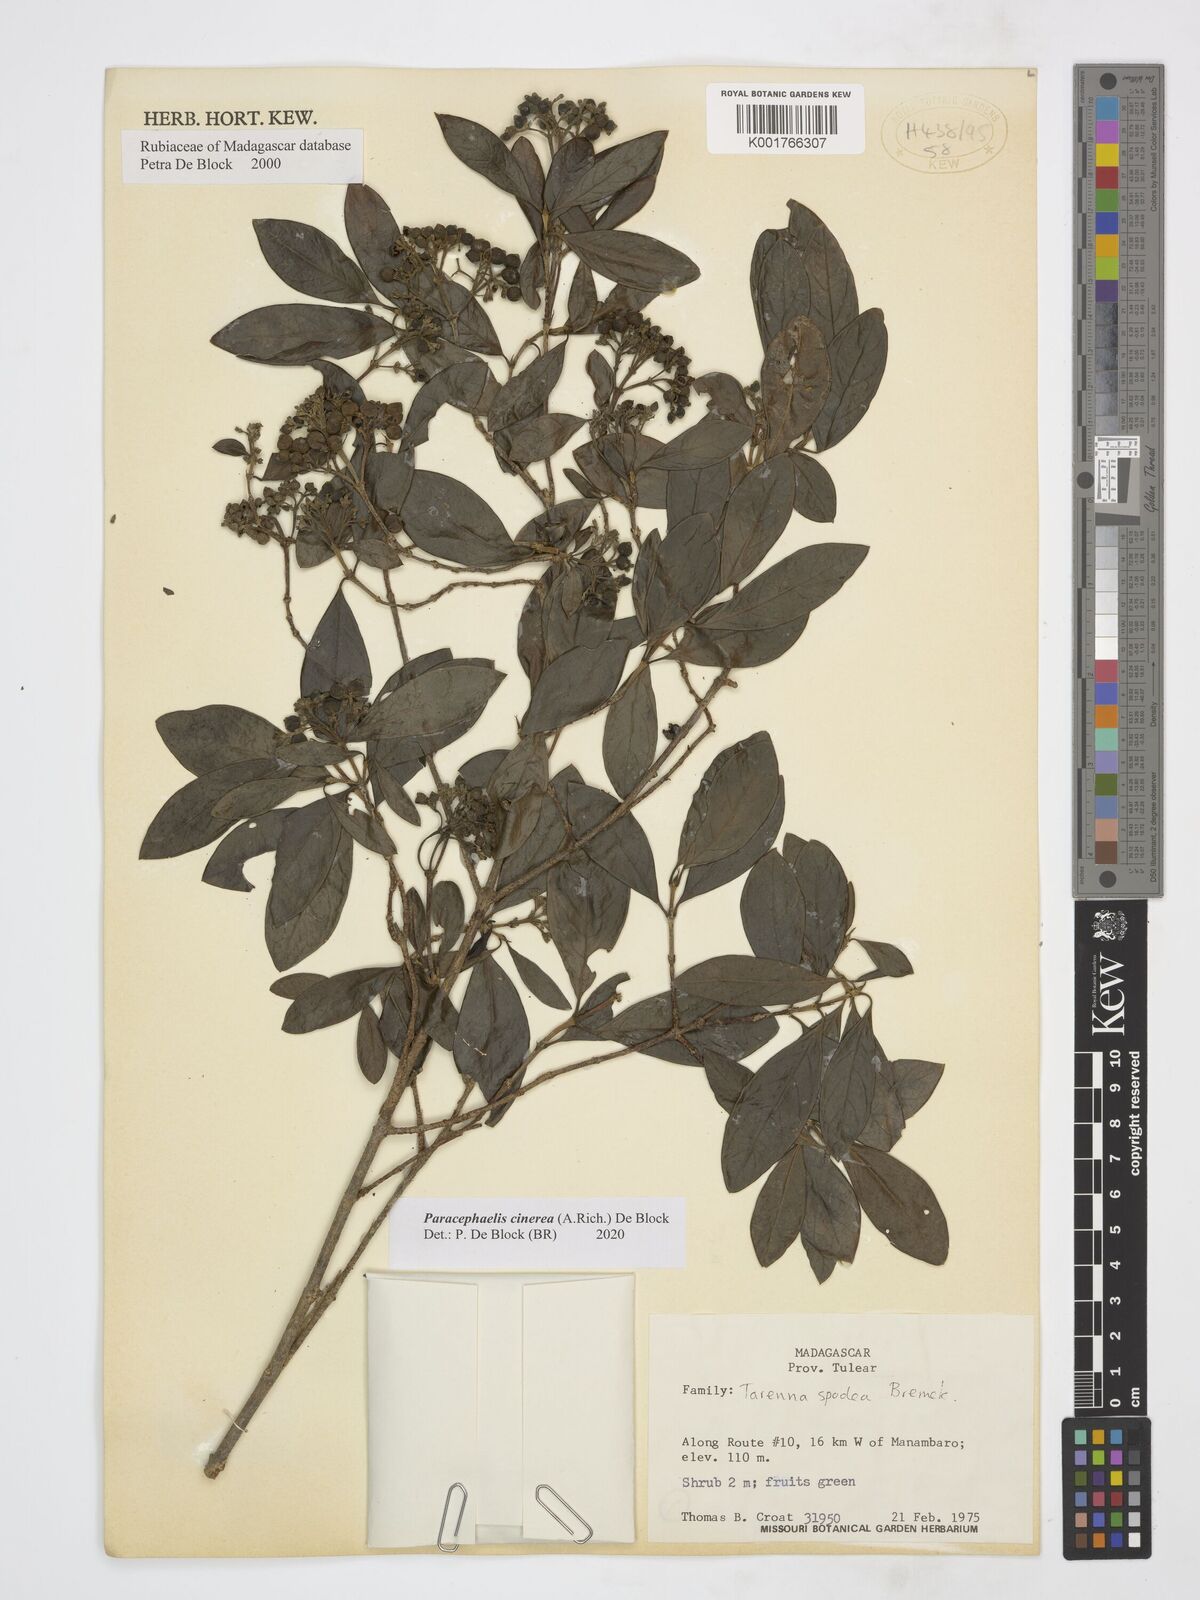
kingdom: Plantae
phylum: Tracheophyta
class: Magnoliopsida
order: Gentianales
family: Rubiaceae
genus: Paracephaelis
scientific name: Paracephaelis cinerea
